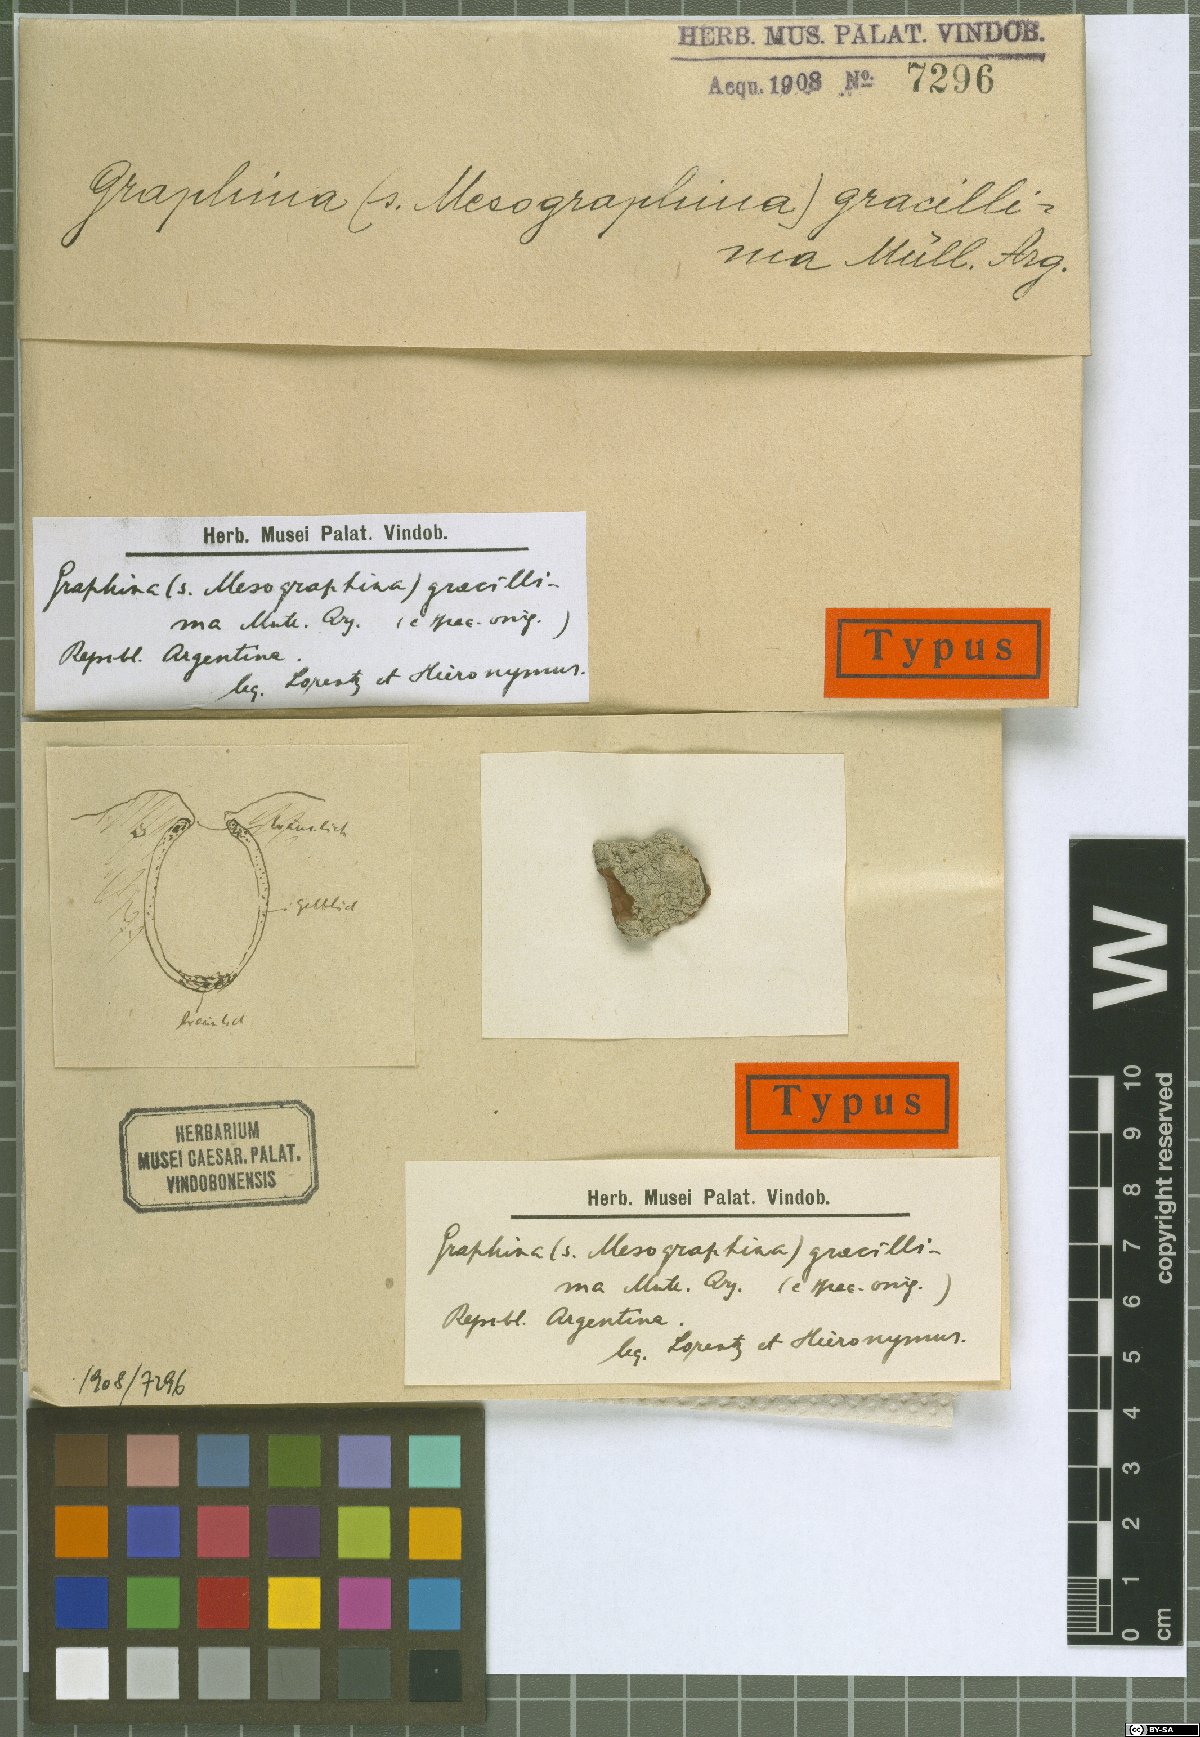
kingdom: Fungi
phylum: Ascomycota
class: Lecanoromycetes
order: Ostropales
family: Graphidaceae
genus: Graphina
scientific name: Graphina gracillima
